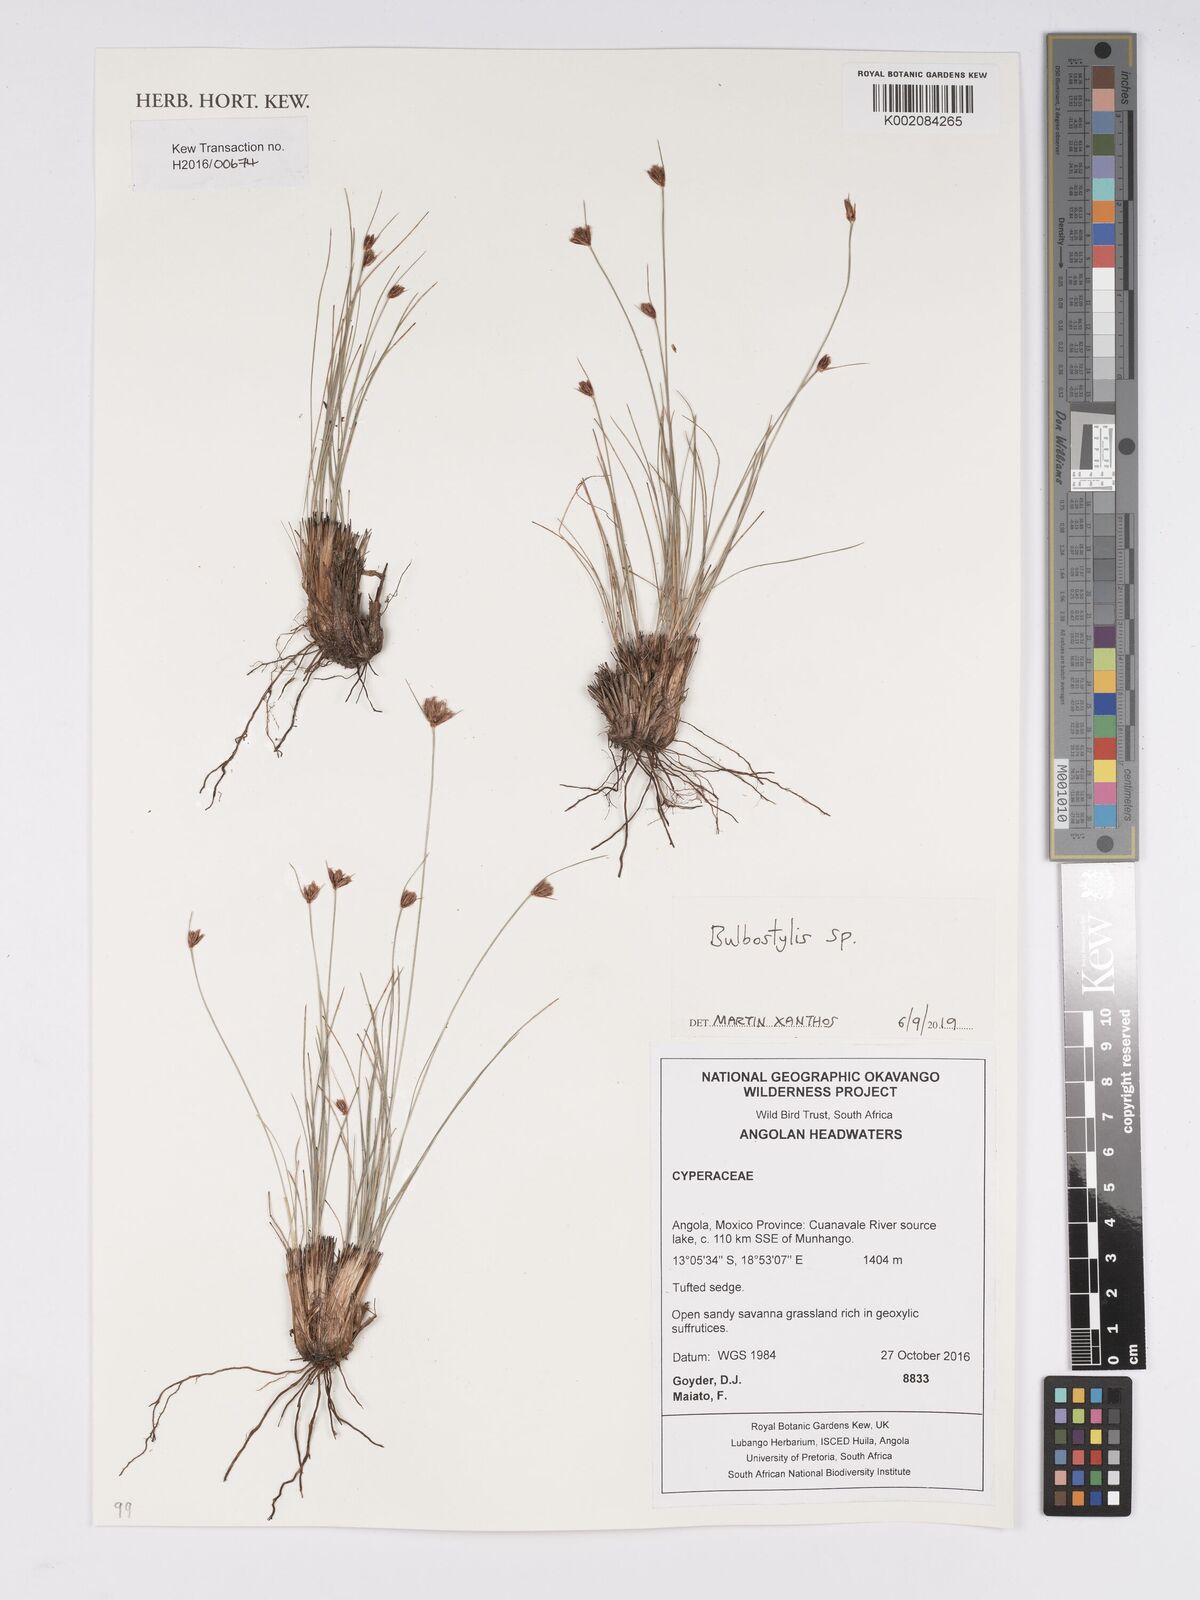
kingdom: Plantae
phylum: Tracheophyta
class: Liliopsida
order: Poales
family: Cyperaceae
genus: Bulbostylis
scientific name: Bulbostylis
